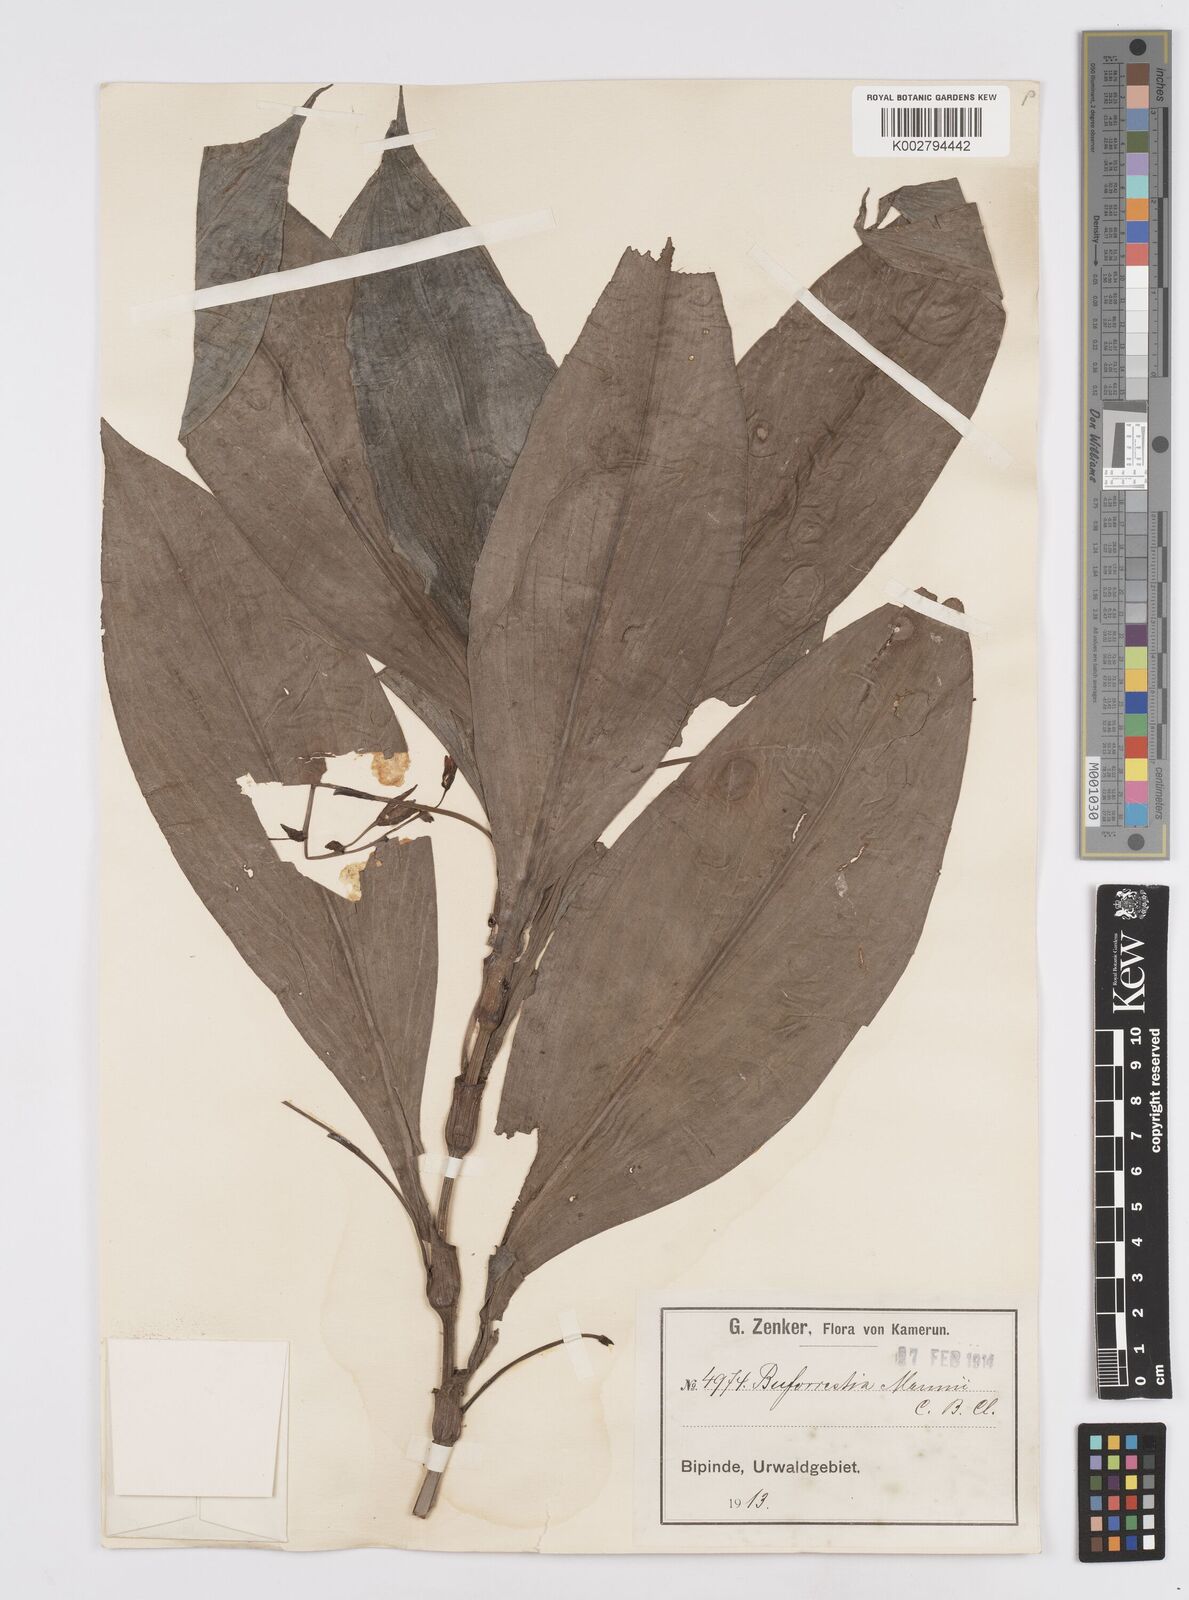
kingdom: Plantae
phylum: Tracheophyta
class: Liliopsida
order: Commelinales
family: Commelinaceae
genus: Buforrestia
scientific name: Buforrestia mannii
